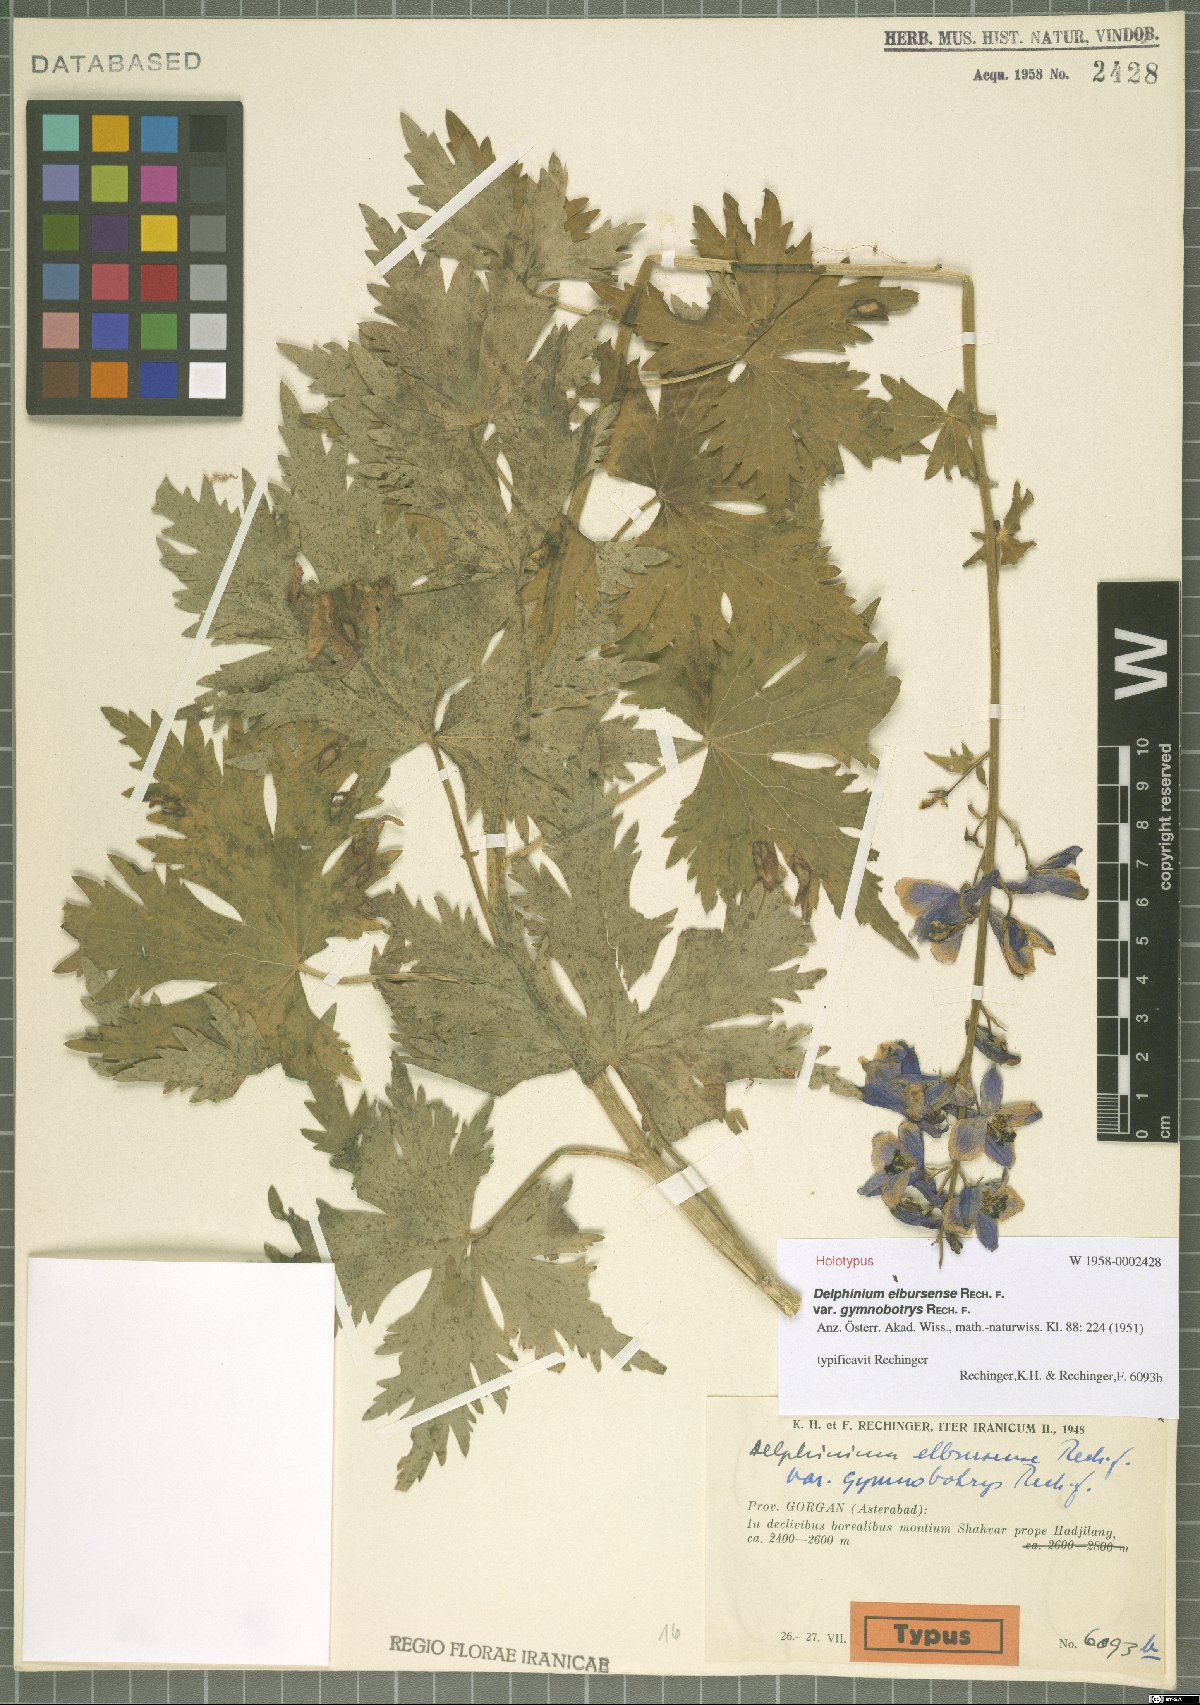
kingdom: Plantae
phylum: Tracheophyta
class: Magnoliopsida
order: Ranunculales
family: Ranunculaceae
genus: Delphinium
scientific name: Delphinium elbursense
